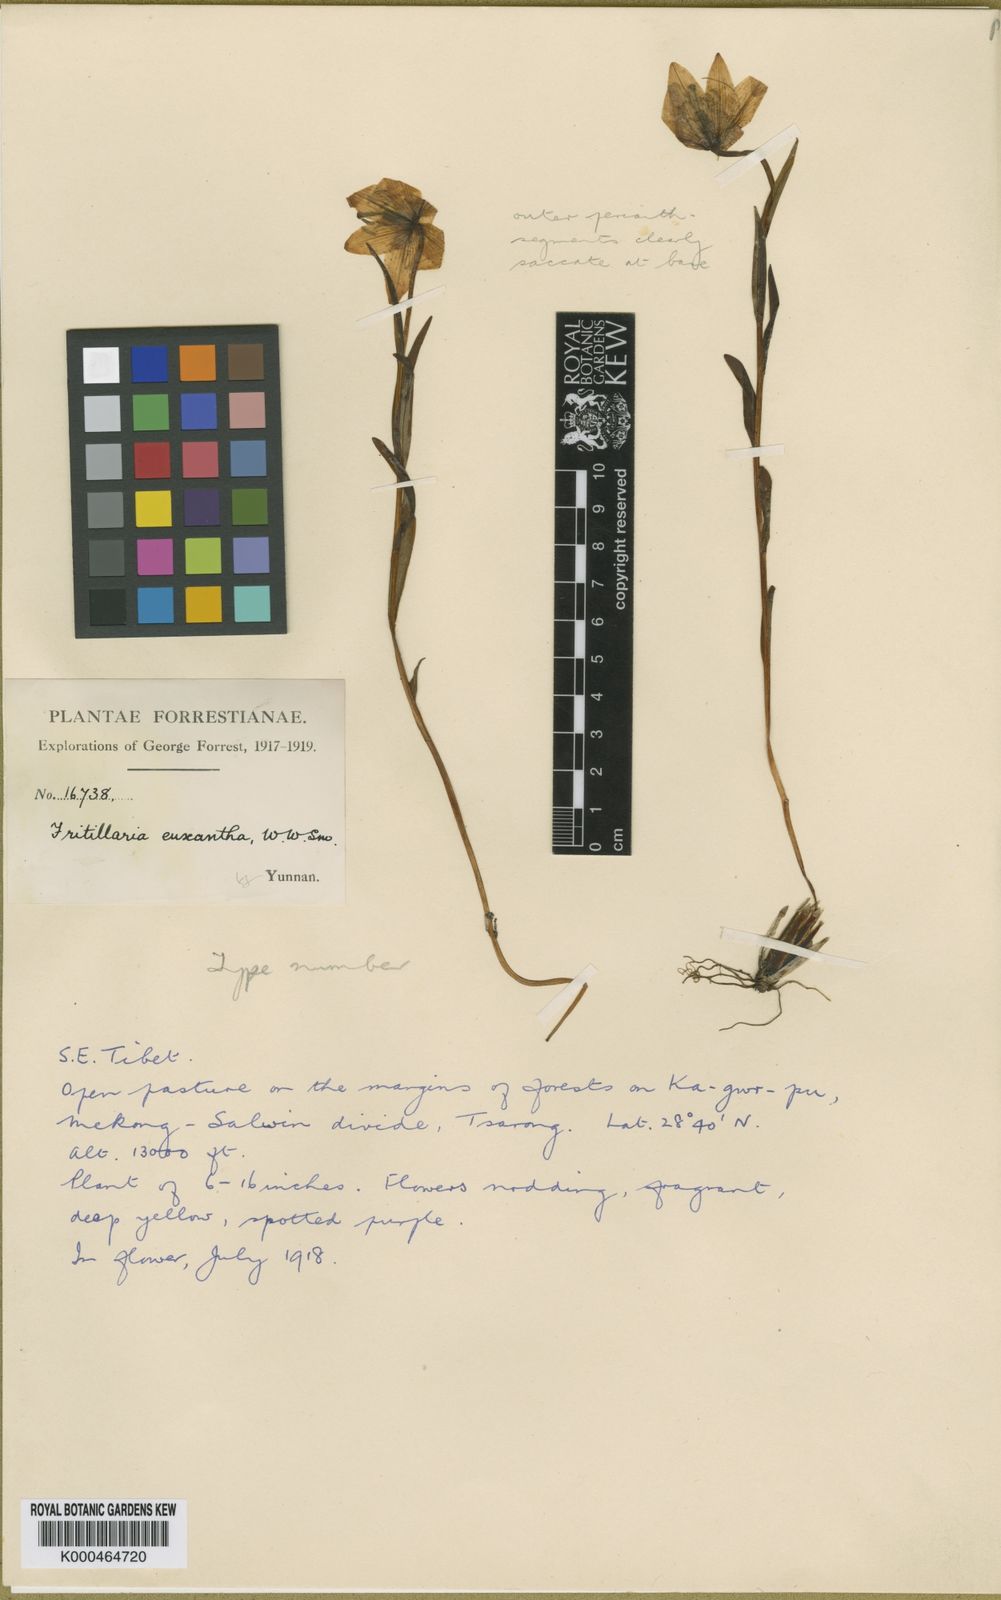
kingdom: Plantae
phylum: Tracheophyta
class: Liliopsida
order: Liliales
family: Liliaceae
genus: Fritillaria
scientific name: Fritillaria
